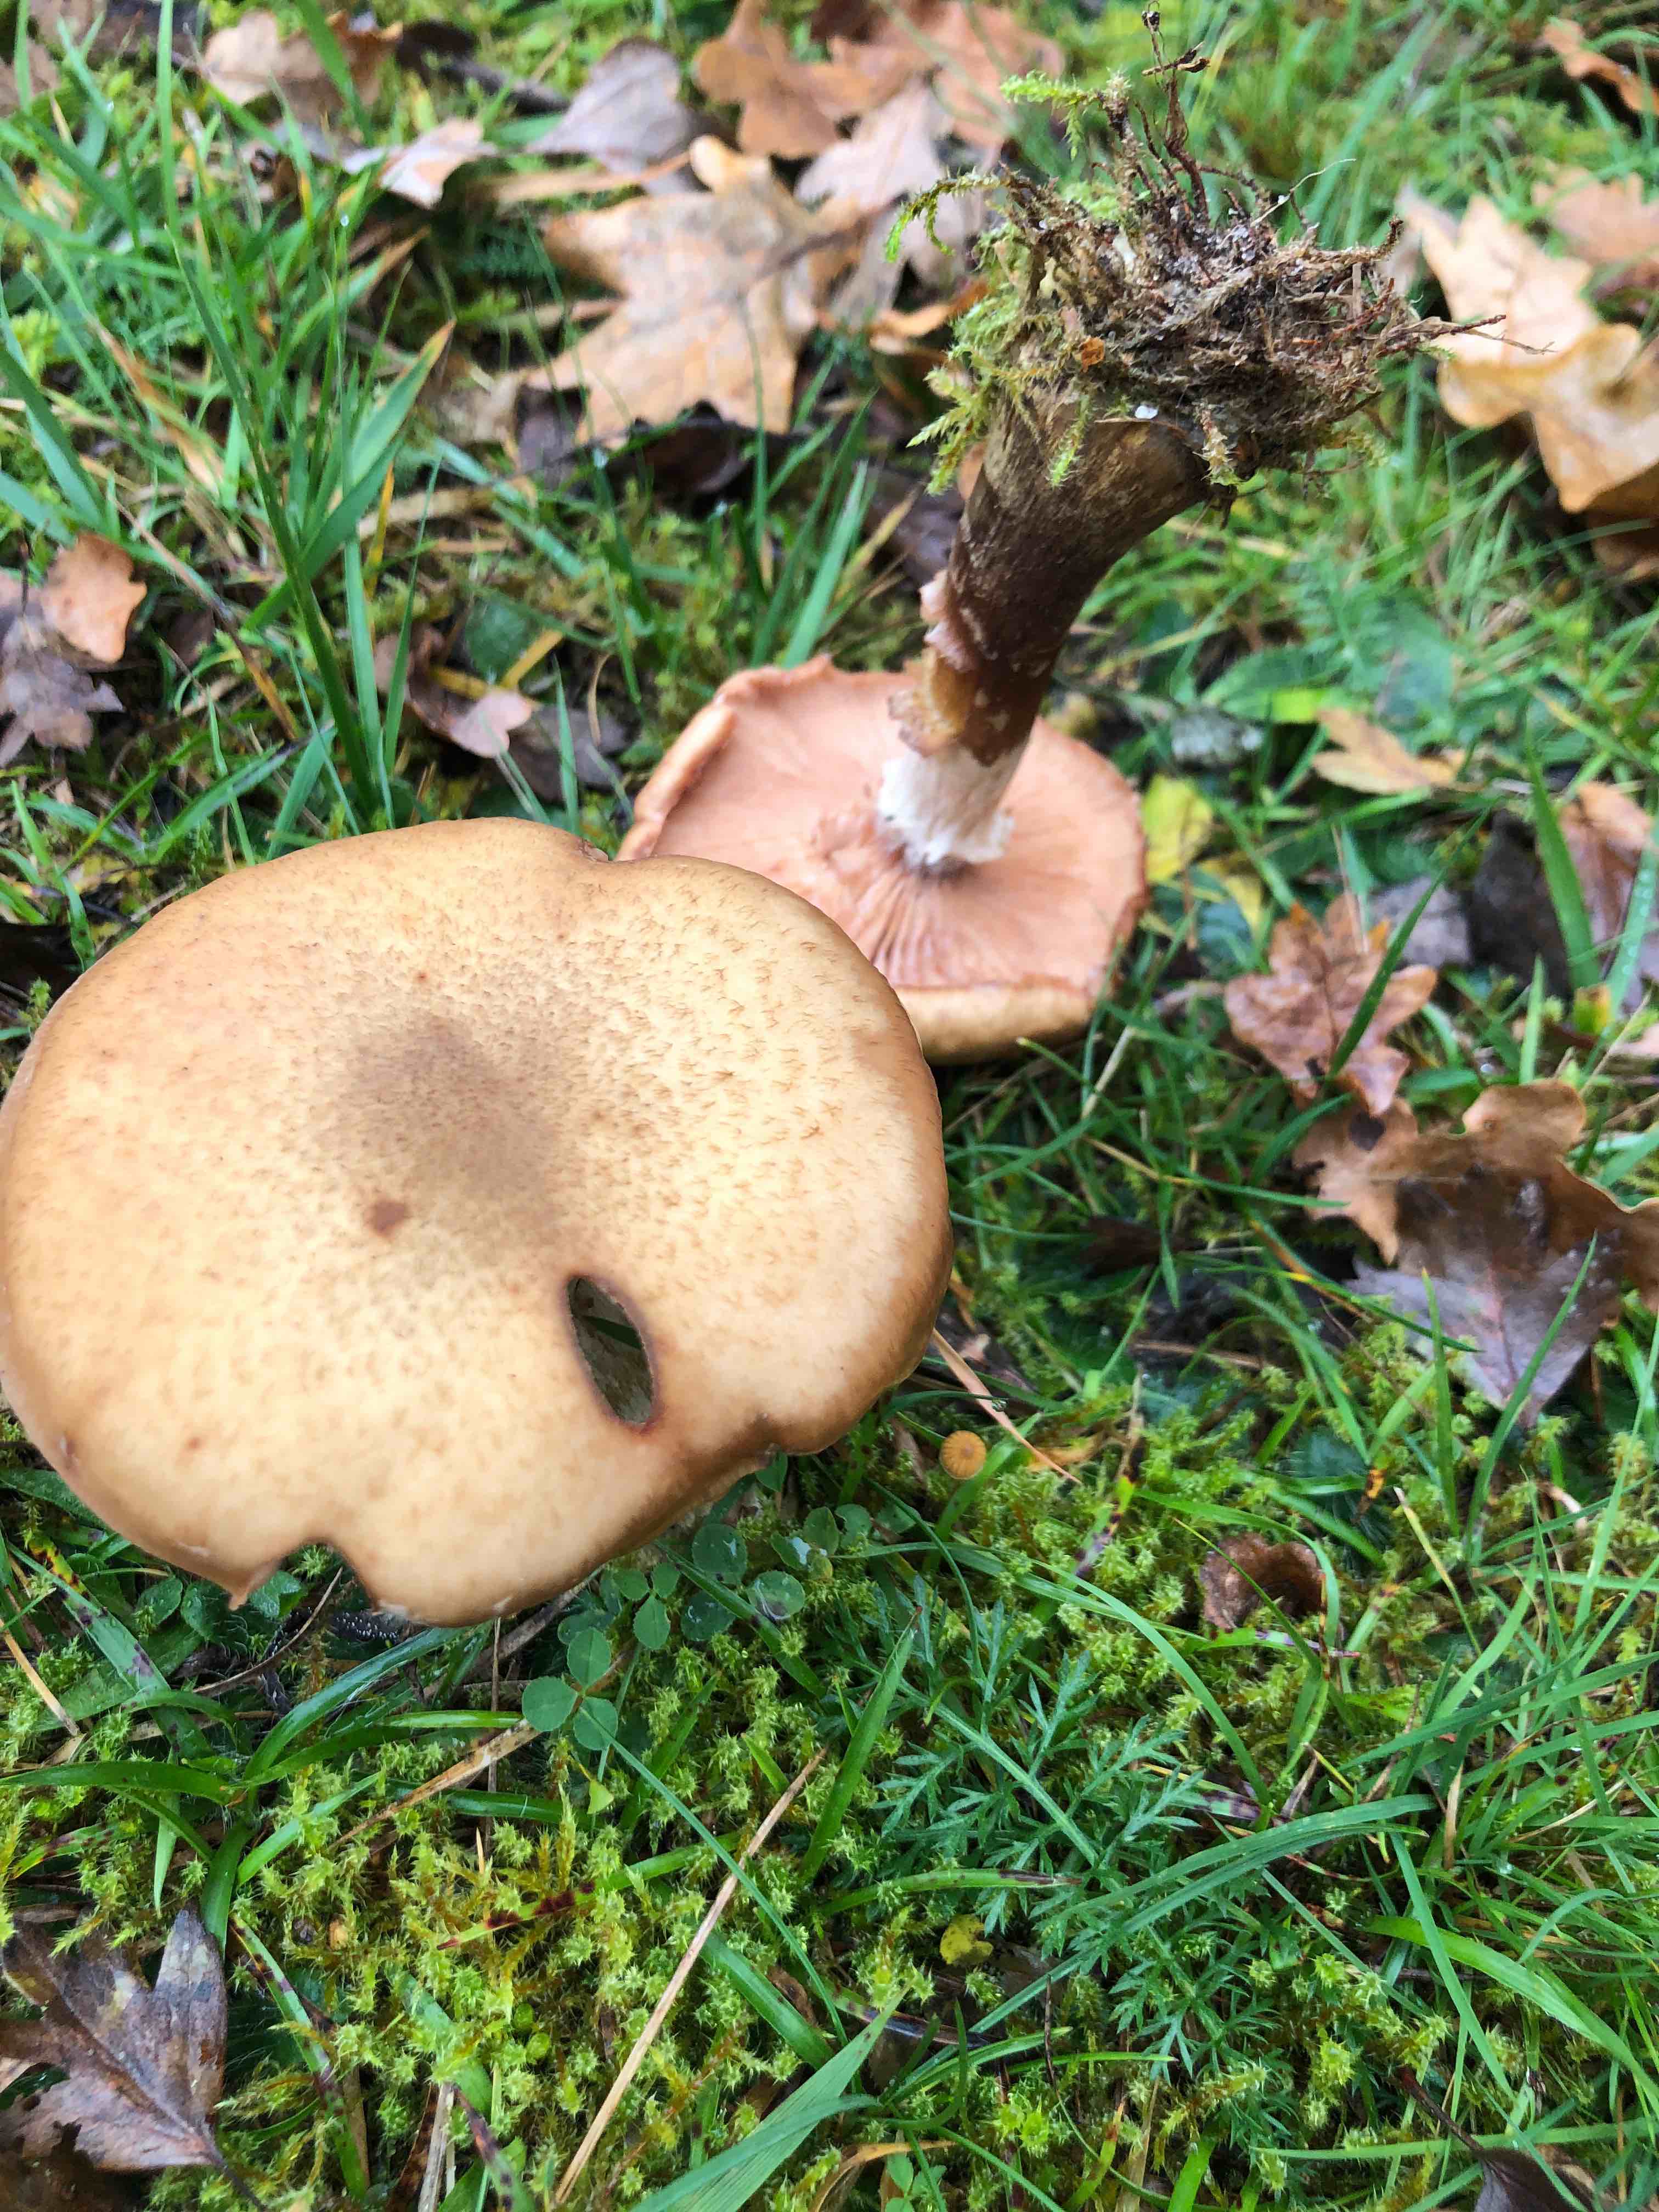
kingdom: Fungi
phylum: Basidiomycota
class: Agaricomycetes
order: Agaricales
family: Physalacriaceae
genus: Armillaria
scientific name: Armillaria lutea
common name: køllestokket honningsvamp
